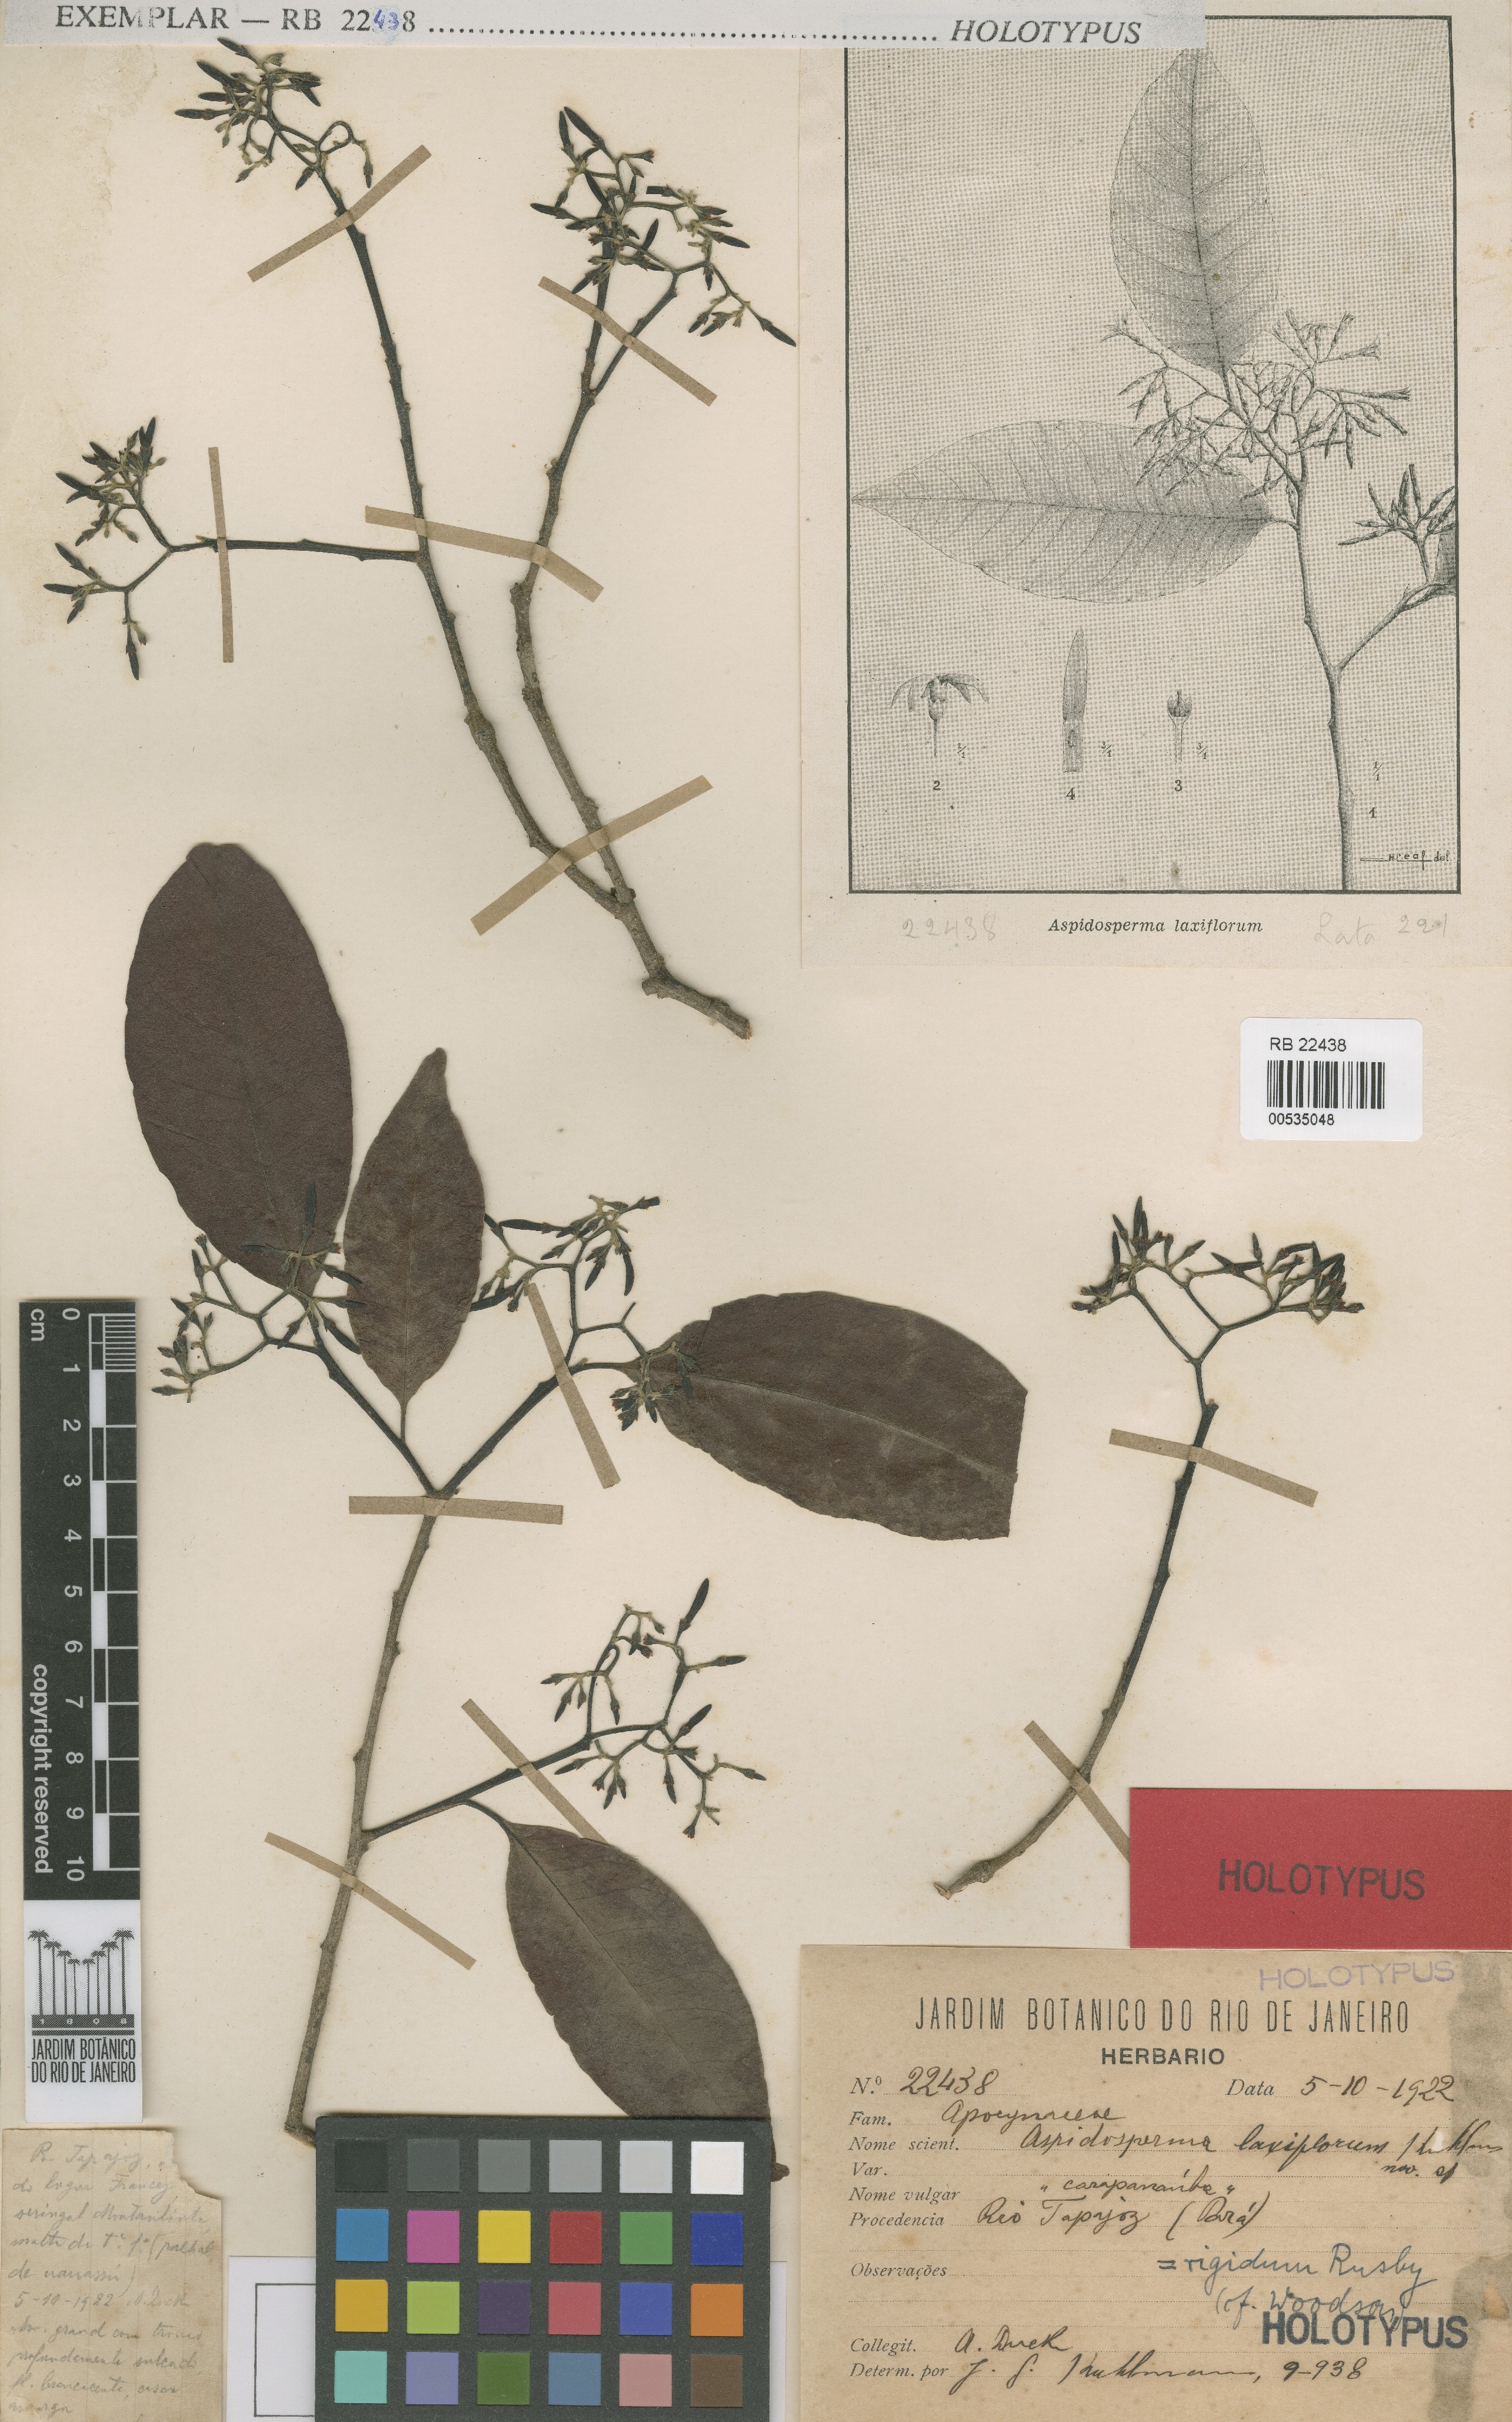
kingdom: Plantae
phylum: Tracheophyta
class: Magnoliopsida
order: Gentianales
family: Apocynaceae
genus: Aspidosperma
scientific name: Aspidosperma rigidum
